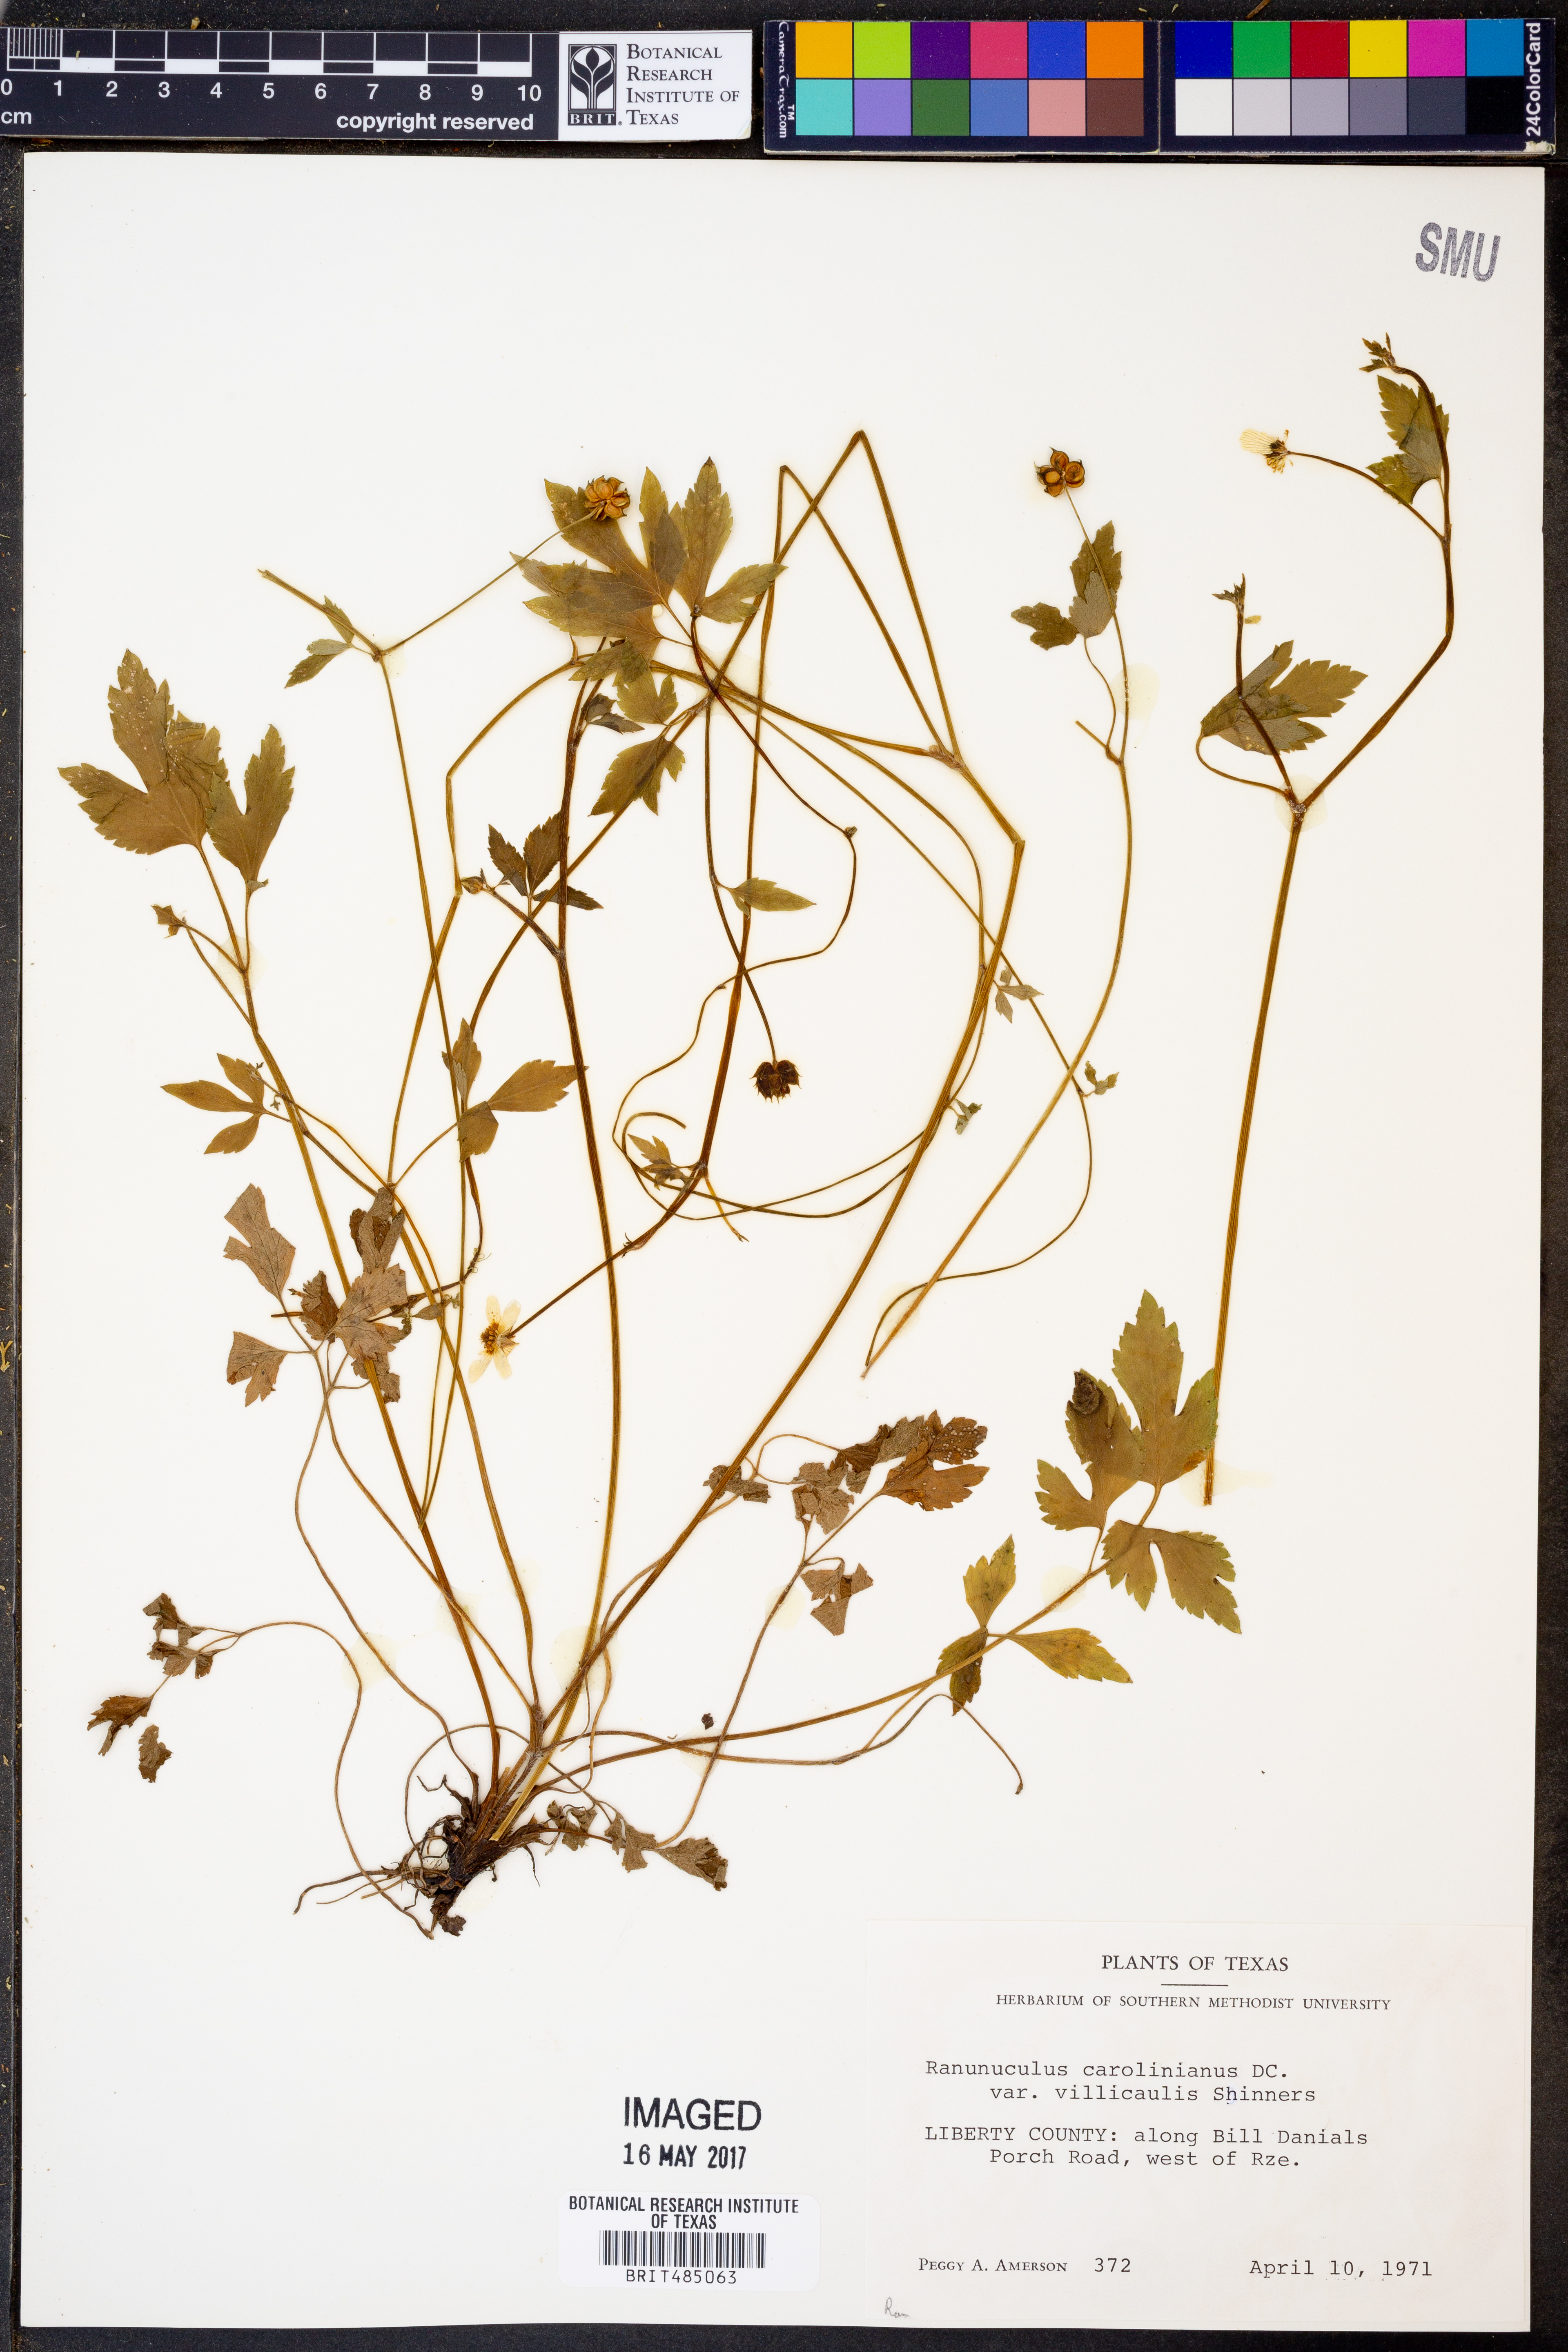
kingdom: Plantae
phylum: Tracheophyta
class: Magnoliopsida
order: Ranunculales
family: Ranunculaceae
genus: Ranunculus
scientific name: Ranunculus hispidus
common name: Bristly buttercup
